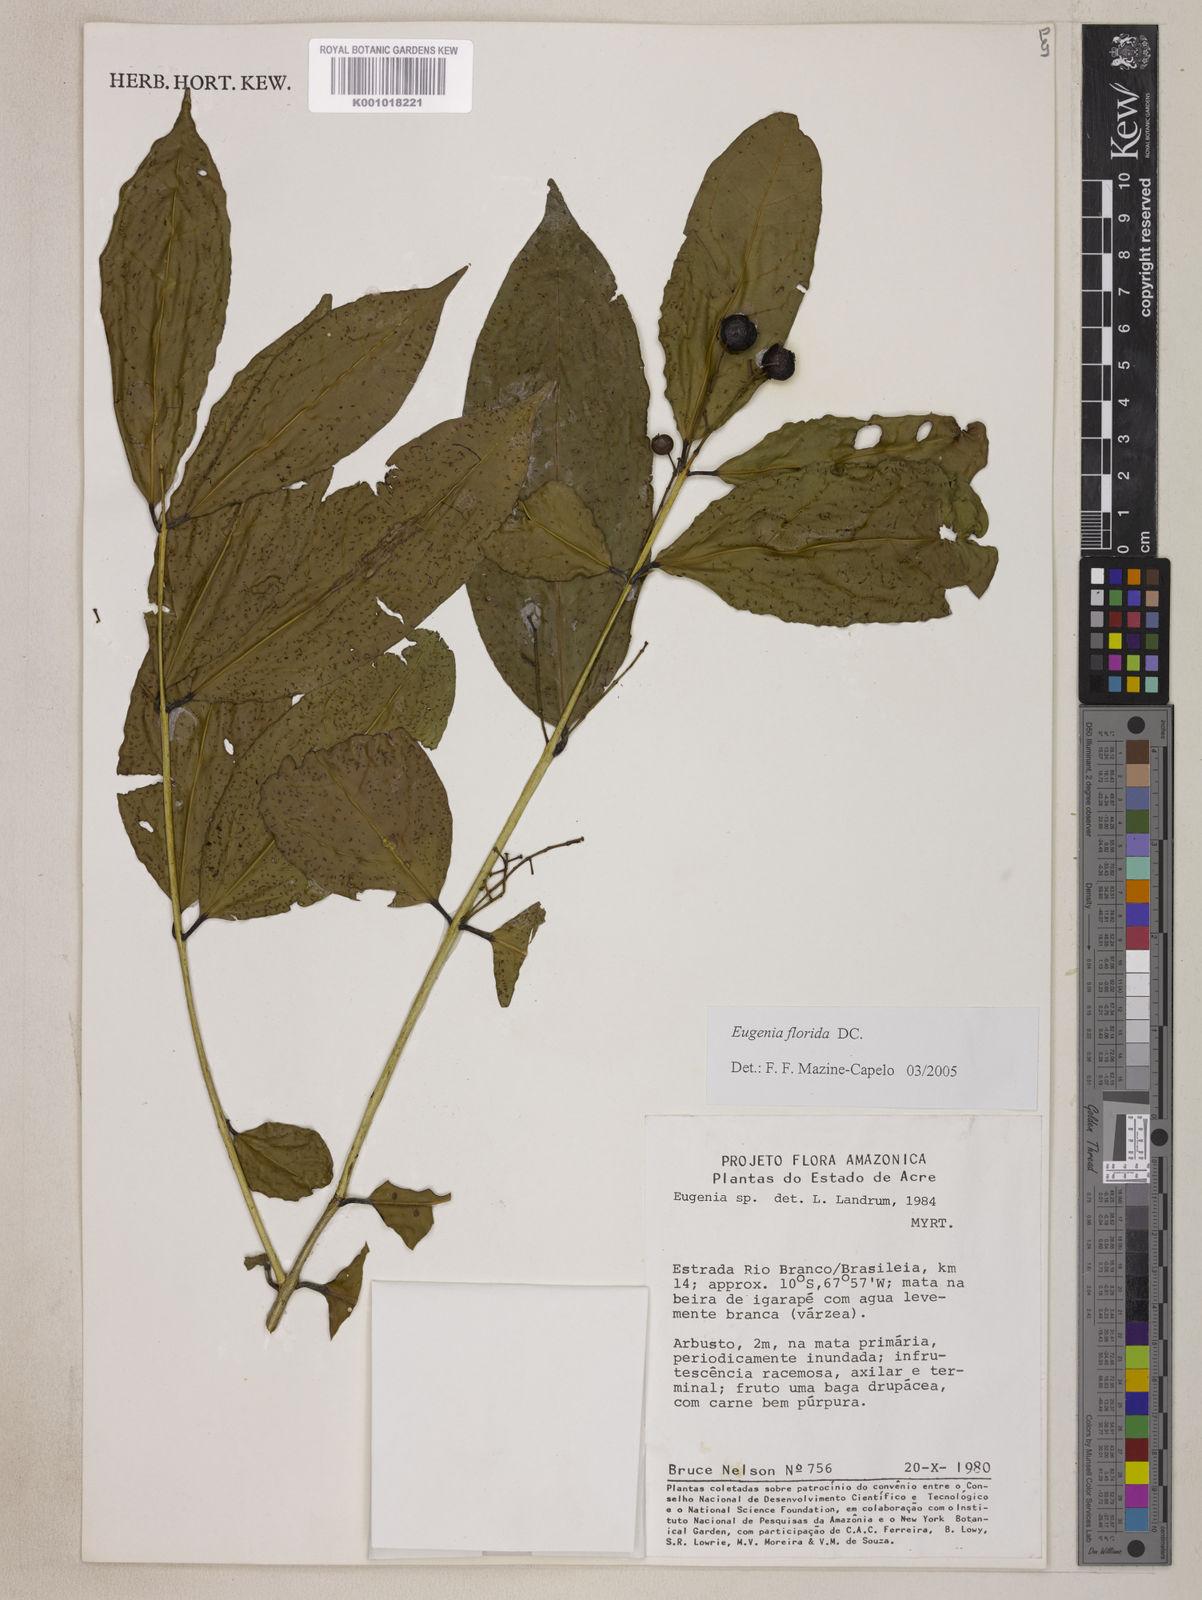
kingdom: Plantae
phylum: Tracheophyta
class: Magnoliopsida
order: Myrtales
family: Myrtaceae
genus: Eugenia
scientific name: Eugenia florida
